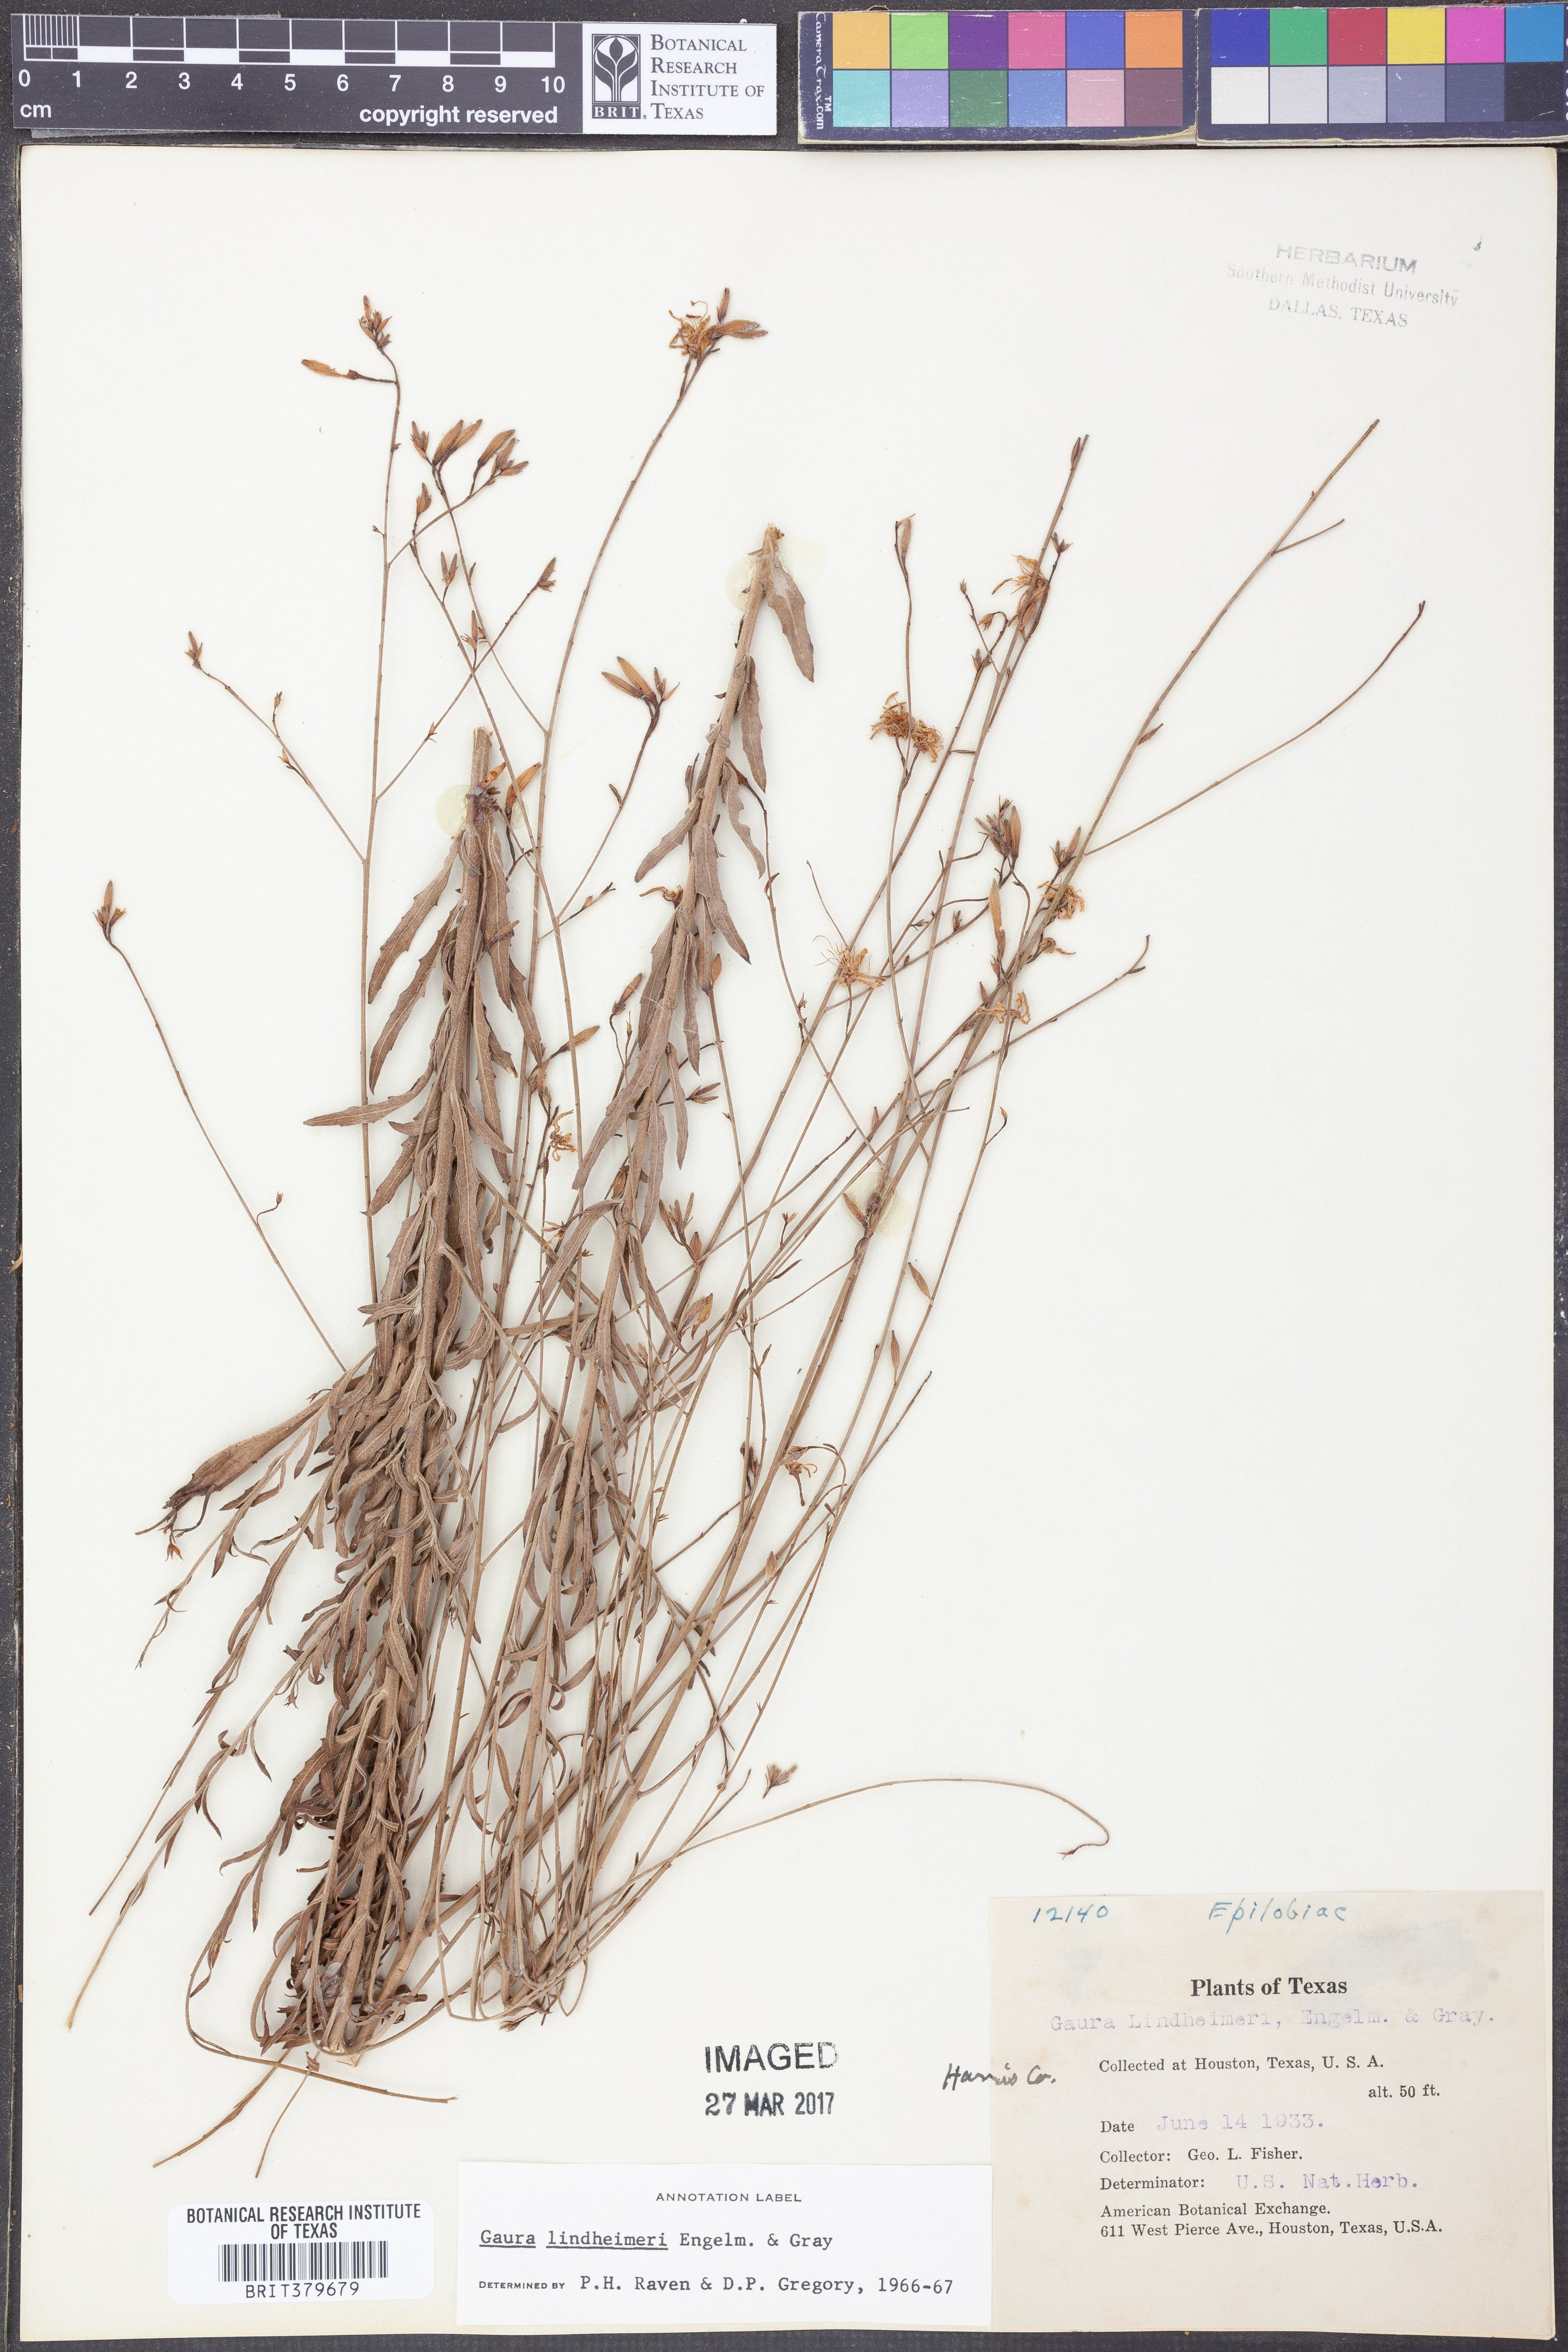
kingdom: Plantae
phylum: Tracheophyta
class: Magnoliopsida
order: Myrtales
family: Onagraceae
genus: Oenothera
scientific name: Oenothera lindheimeri
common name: Lindheimer's beeblossom
